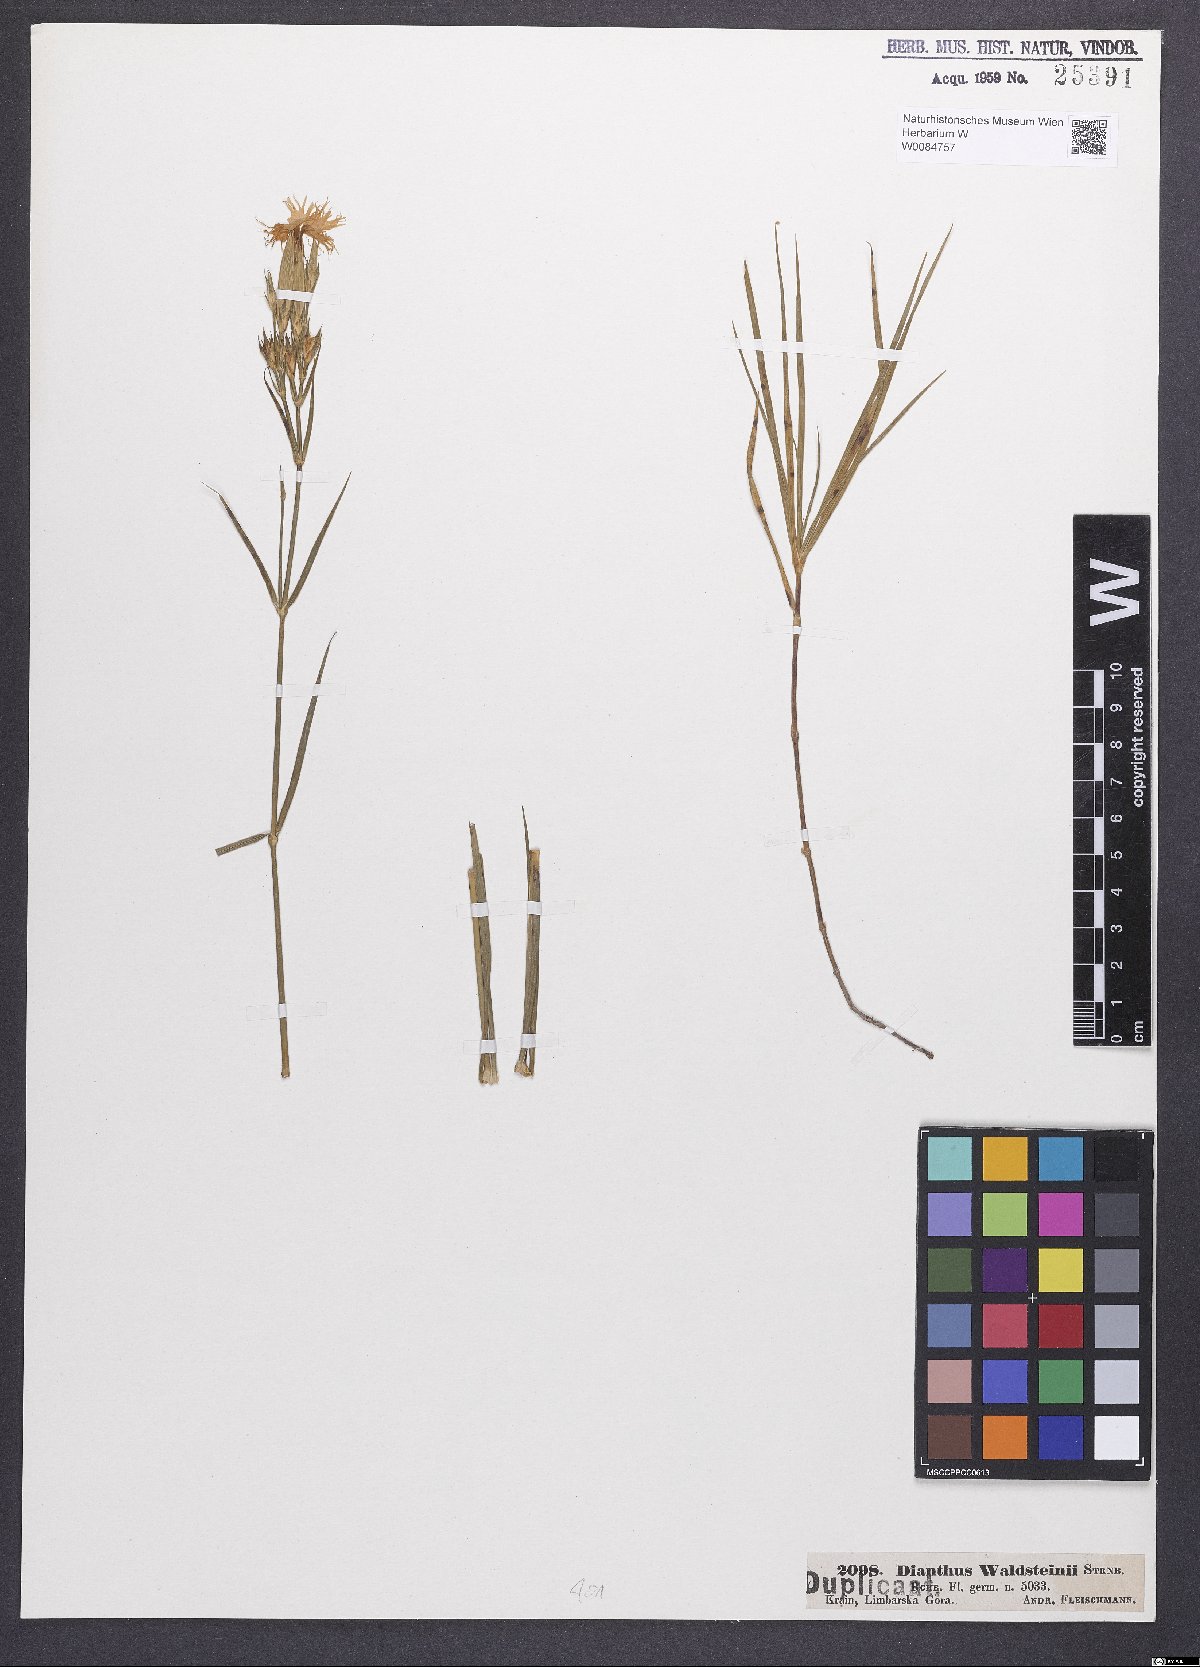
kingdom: Plantae
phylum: Tracheophyta
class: Magnoliopsida
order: Caryophyllales
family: Caryophyllaceae
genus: Dianthus
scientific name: Dianthus monspessulanus
